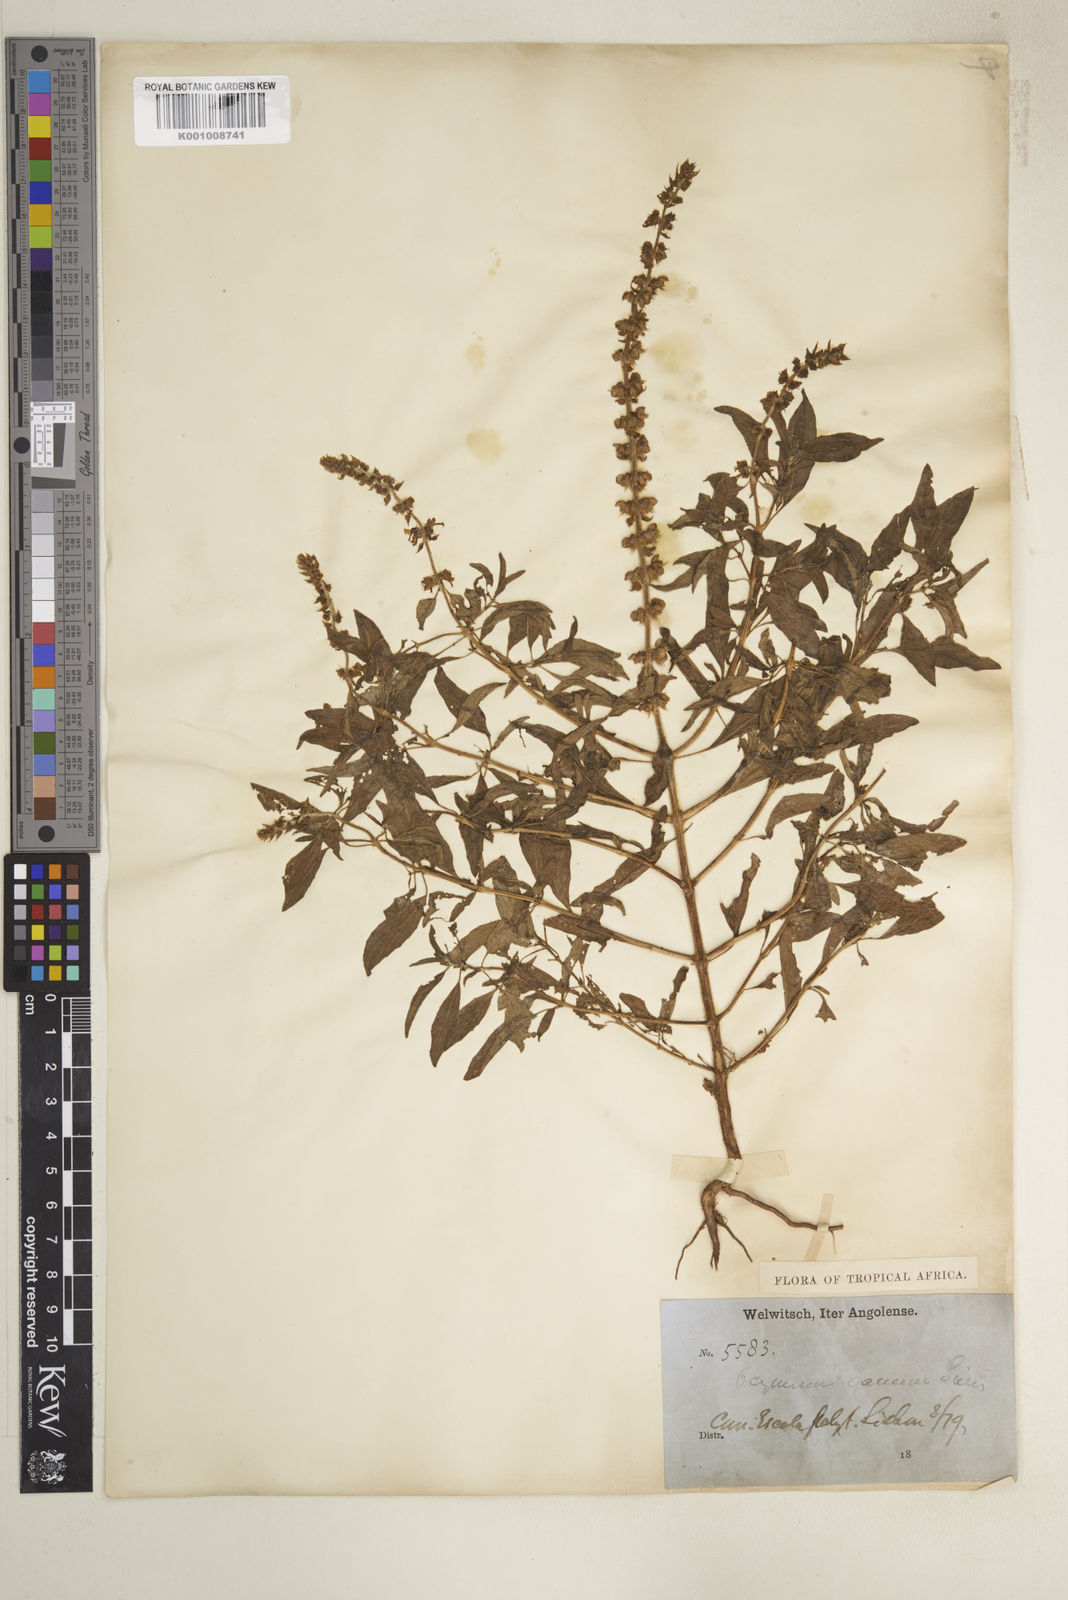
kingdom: Plantae
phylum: Tracheophyta
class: Magnoliopsida
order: Lamiales
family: Lamiaceae
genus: Ocimum
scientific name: Ocimum americanum
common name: American basil
